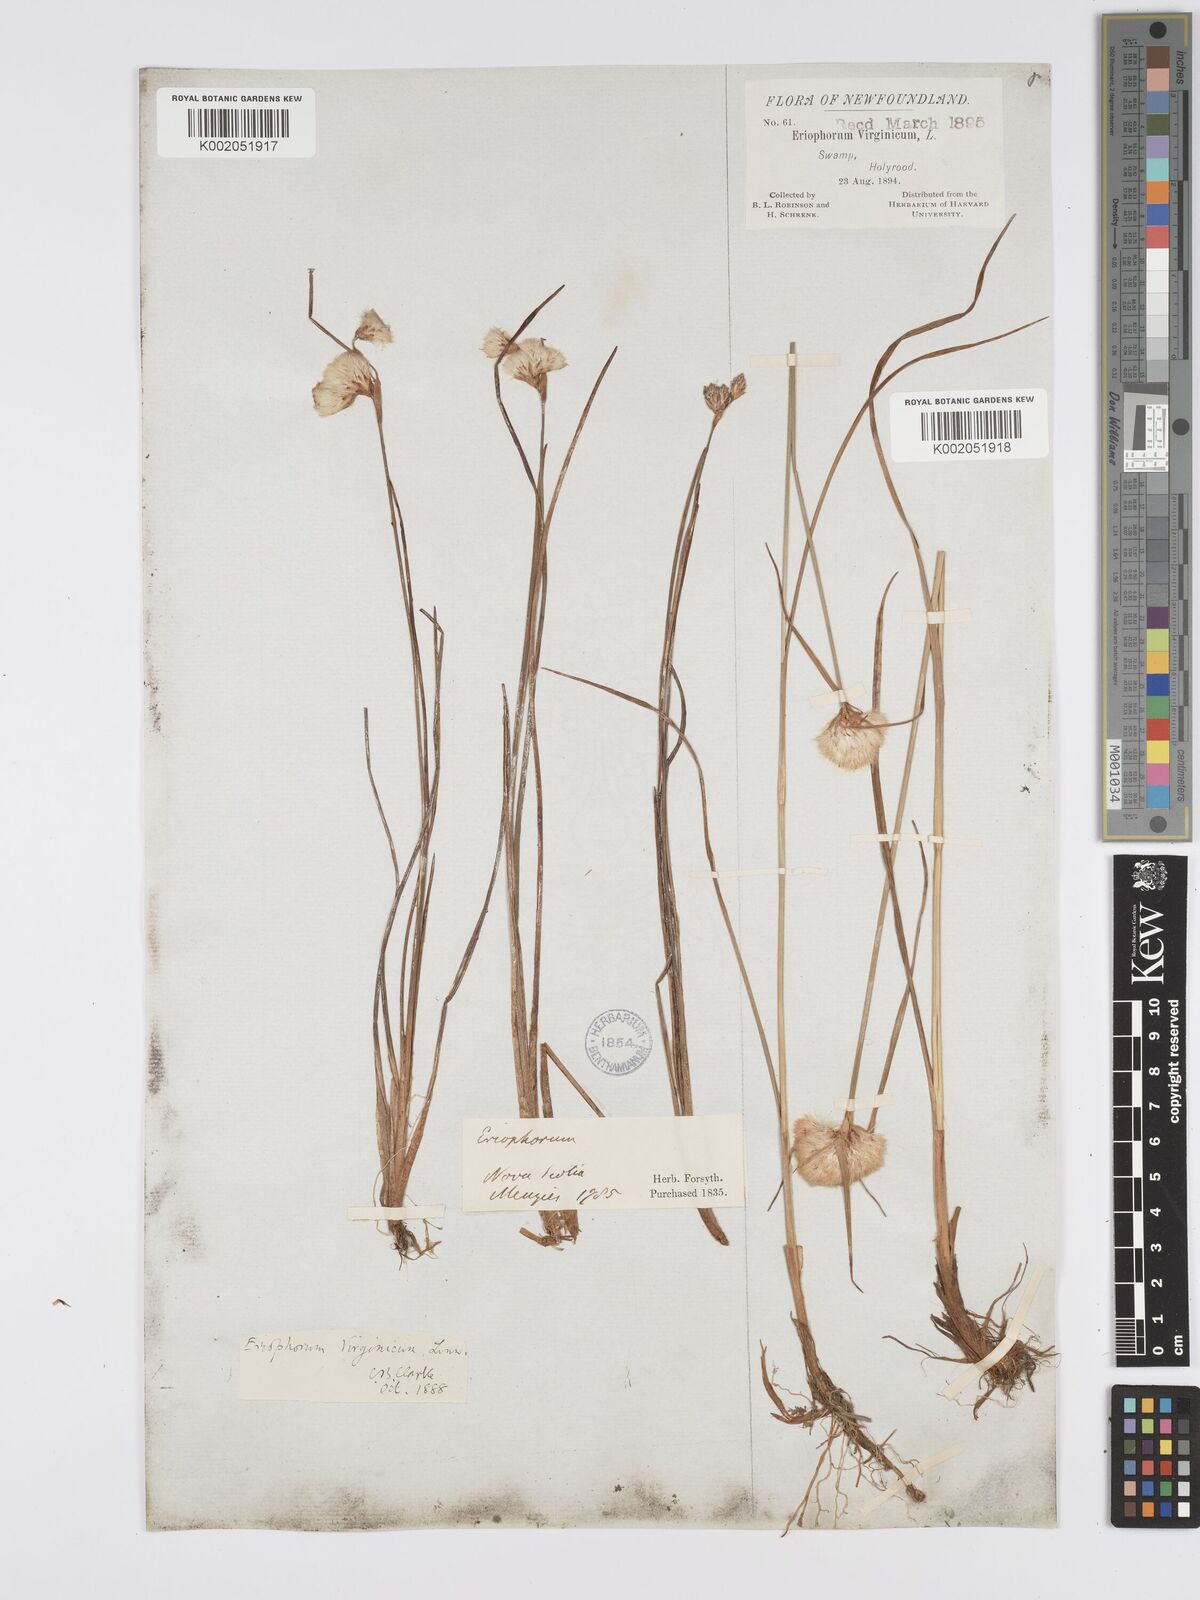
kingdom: Plantae
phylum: Tracheophyta
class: Liliopsida
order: Poales
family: Cyperaceae
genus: Eriophorum
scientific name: Eriophorum virginicum
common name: Tawny cottongrass
